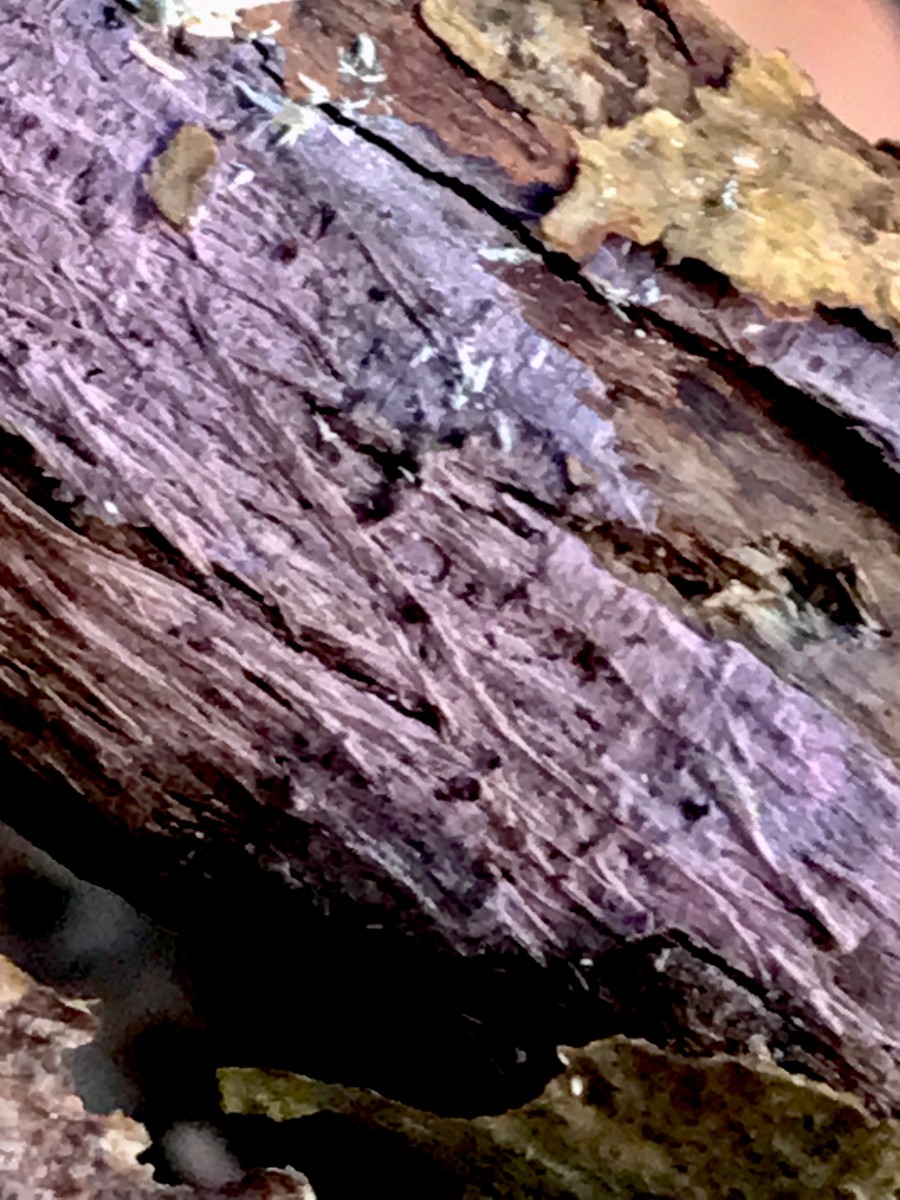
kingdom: Fungi
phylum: Basidiomycota
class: Agaricomycetes
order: Cantharellales
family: Tulasnellaceae
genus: Tulasnella
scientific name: Tulasnella violea
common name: violet ballonhinde
